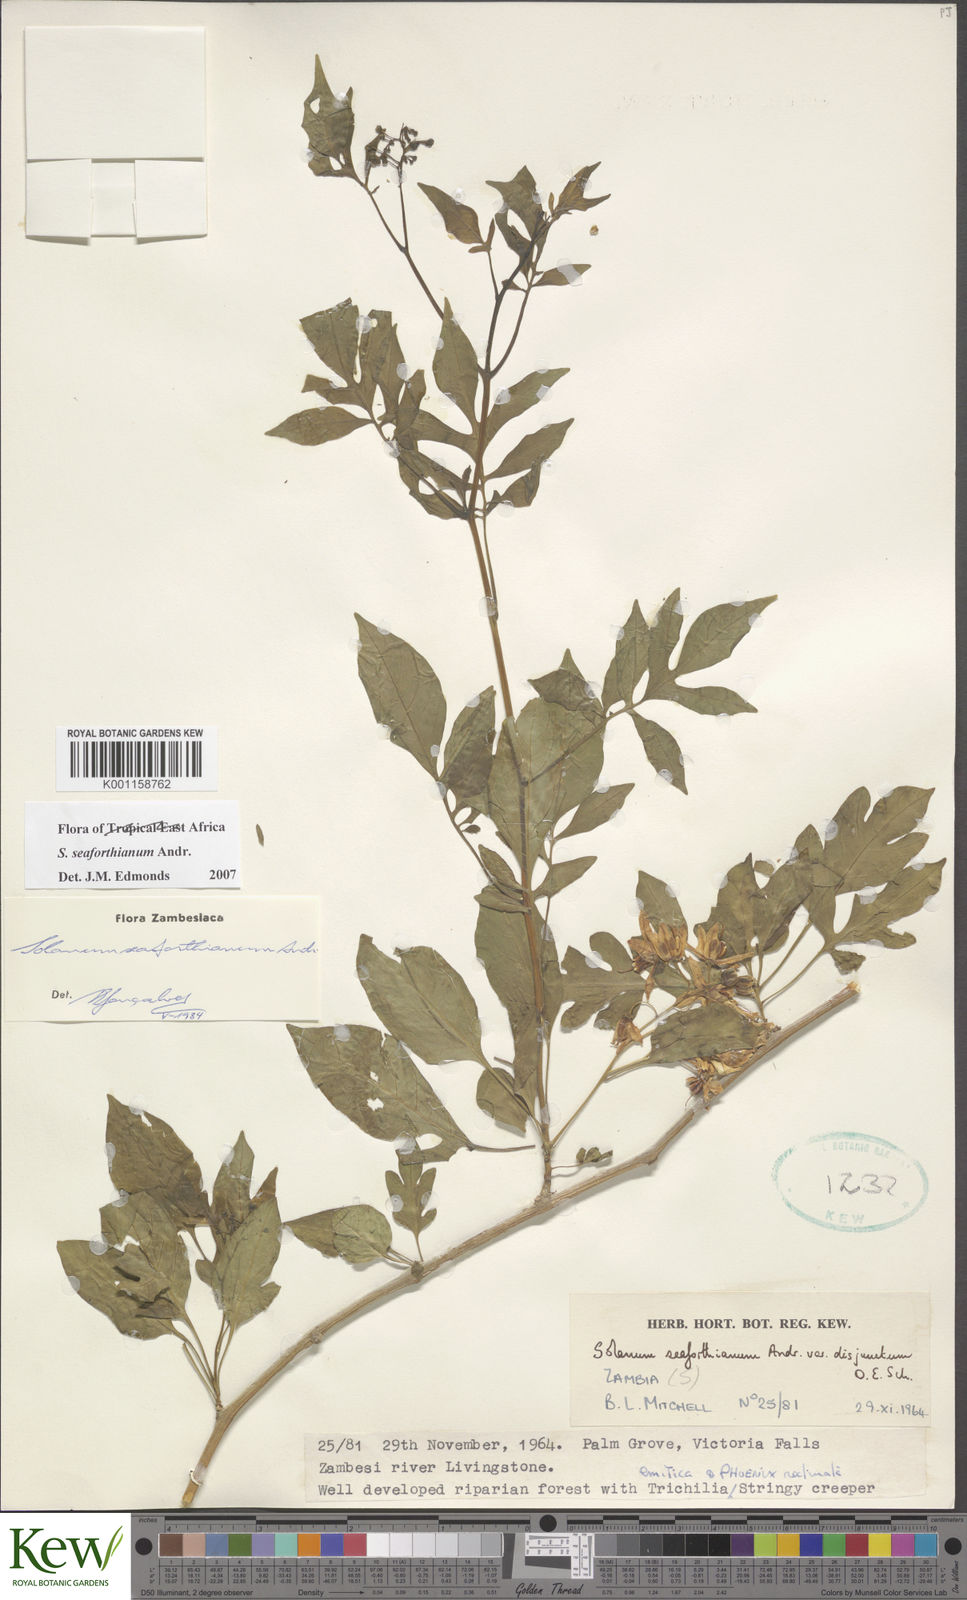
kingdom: Plantae
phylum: Tracheophyta
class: Magnoliopsida
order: Solanales
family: Solanaceae
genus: Solanum
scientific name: Solanum seaforthianum
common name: Brazilian nightshade
